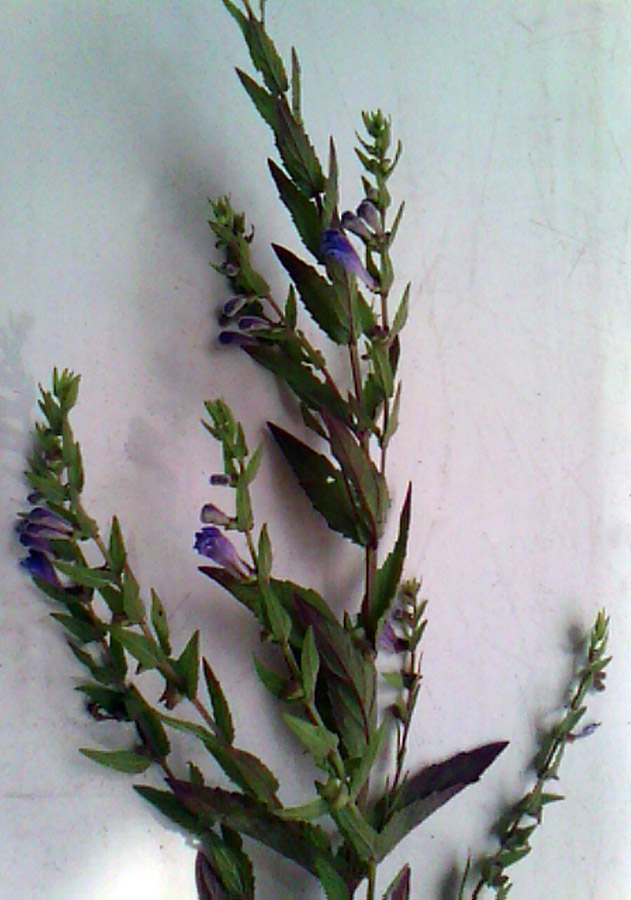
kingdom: Plantae
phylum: Tracheophyta
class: Magnoliopsida
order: Lamiales
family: Lamiaceae
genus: Scutellaria
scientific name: Scutellaria galericulata
